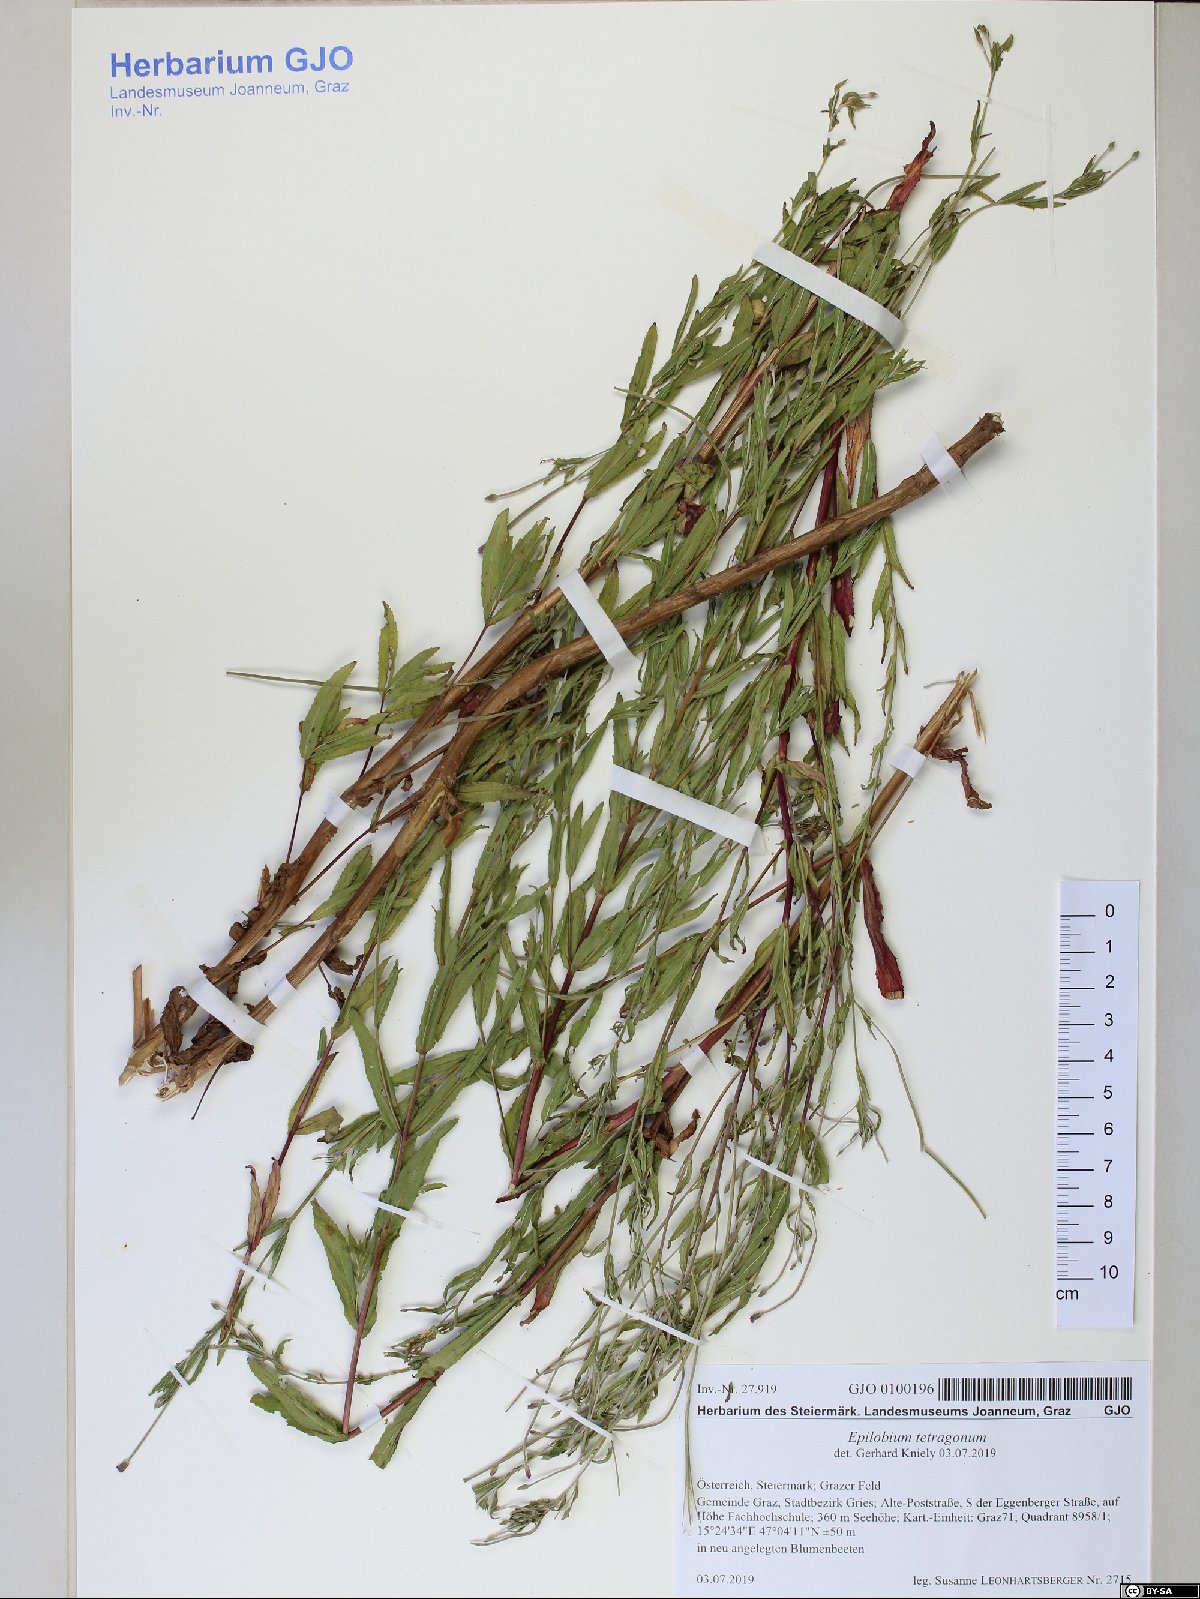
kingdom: Plantae
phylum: Tracheophyta
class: Magnoliopsida
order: Myrtales
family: Onagraceae
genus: Epilobium
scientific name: Epilobium tetragonum
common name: Square-stemmed willowherb
